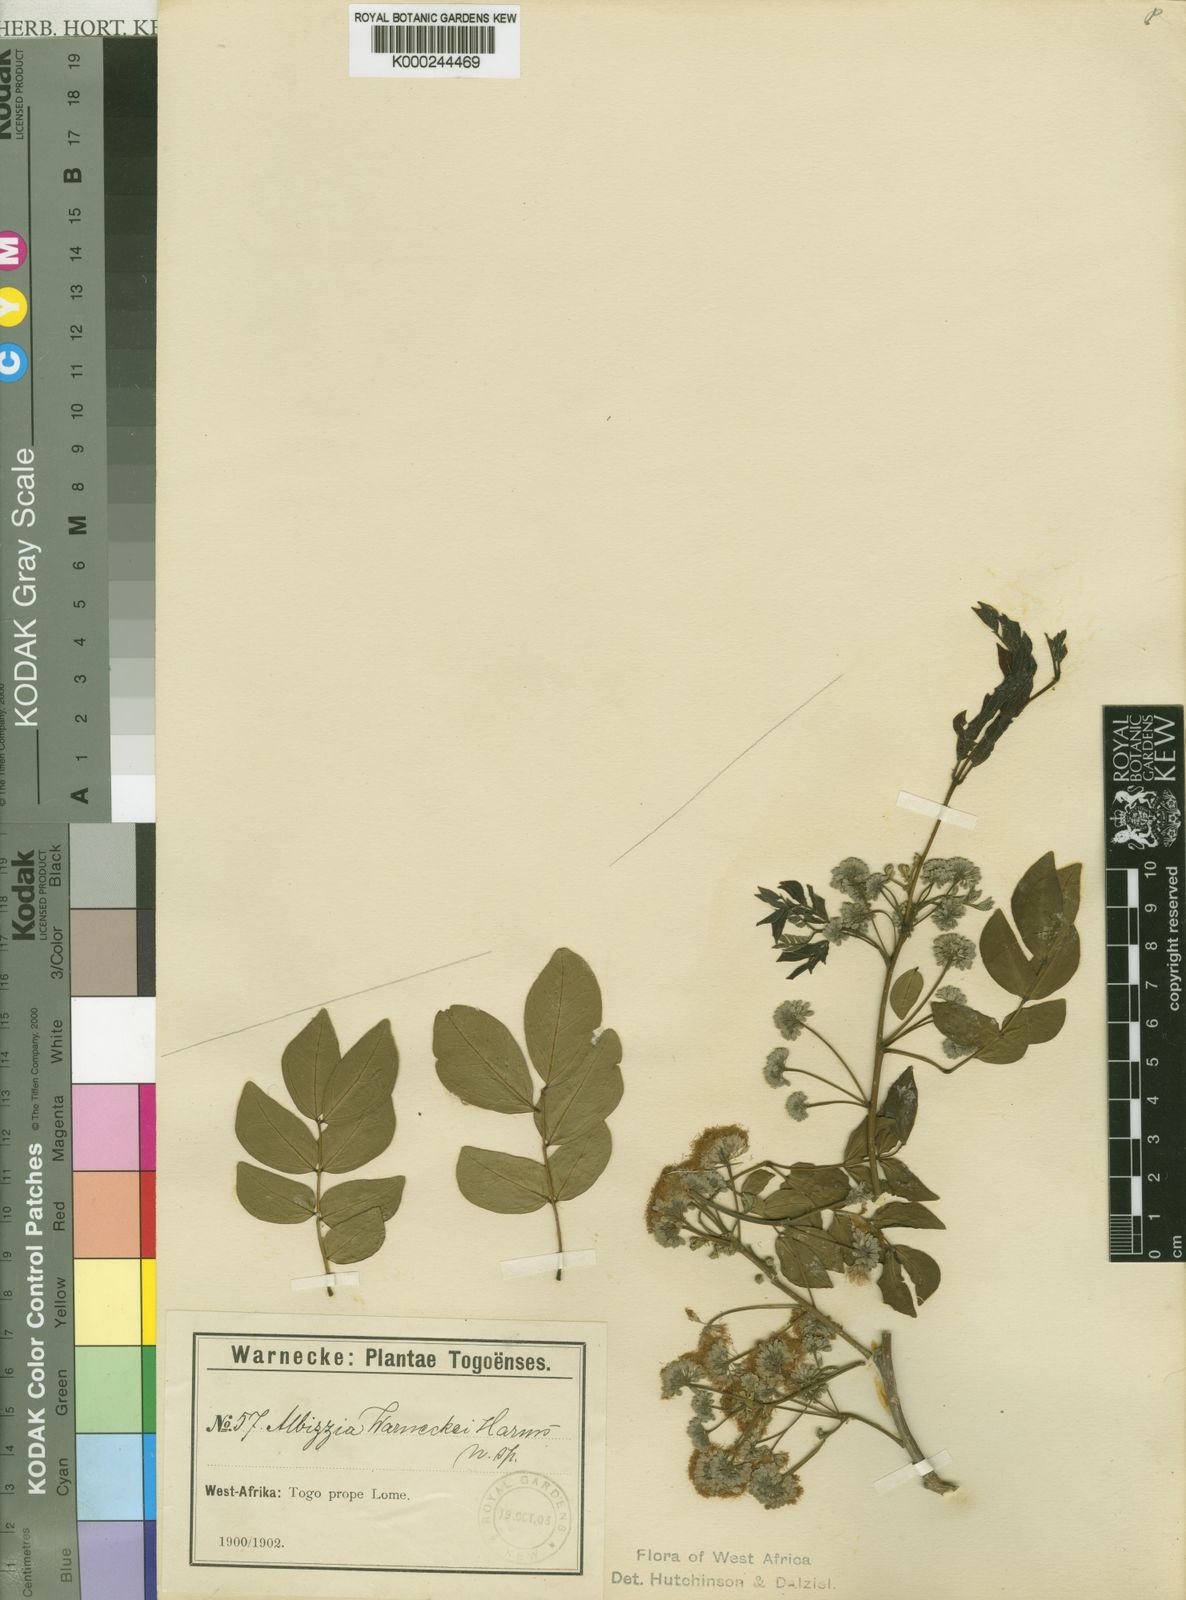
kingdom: Plantae
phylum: Tracheophyta
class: Magnoliopsida
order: Fabales
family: Fabaceae
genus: Albizia
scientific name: Albizia glaberrima
